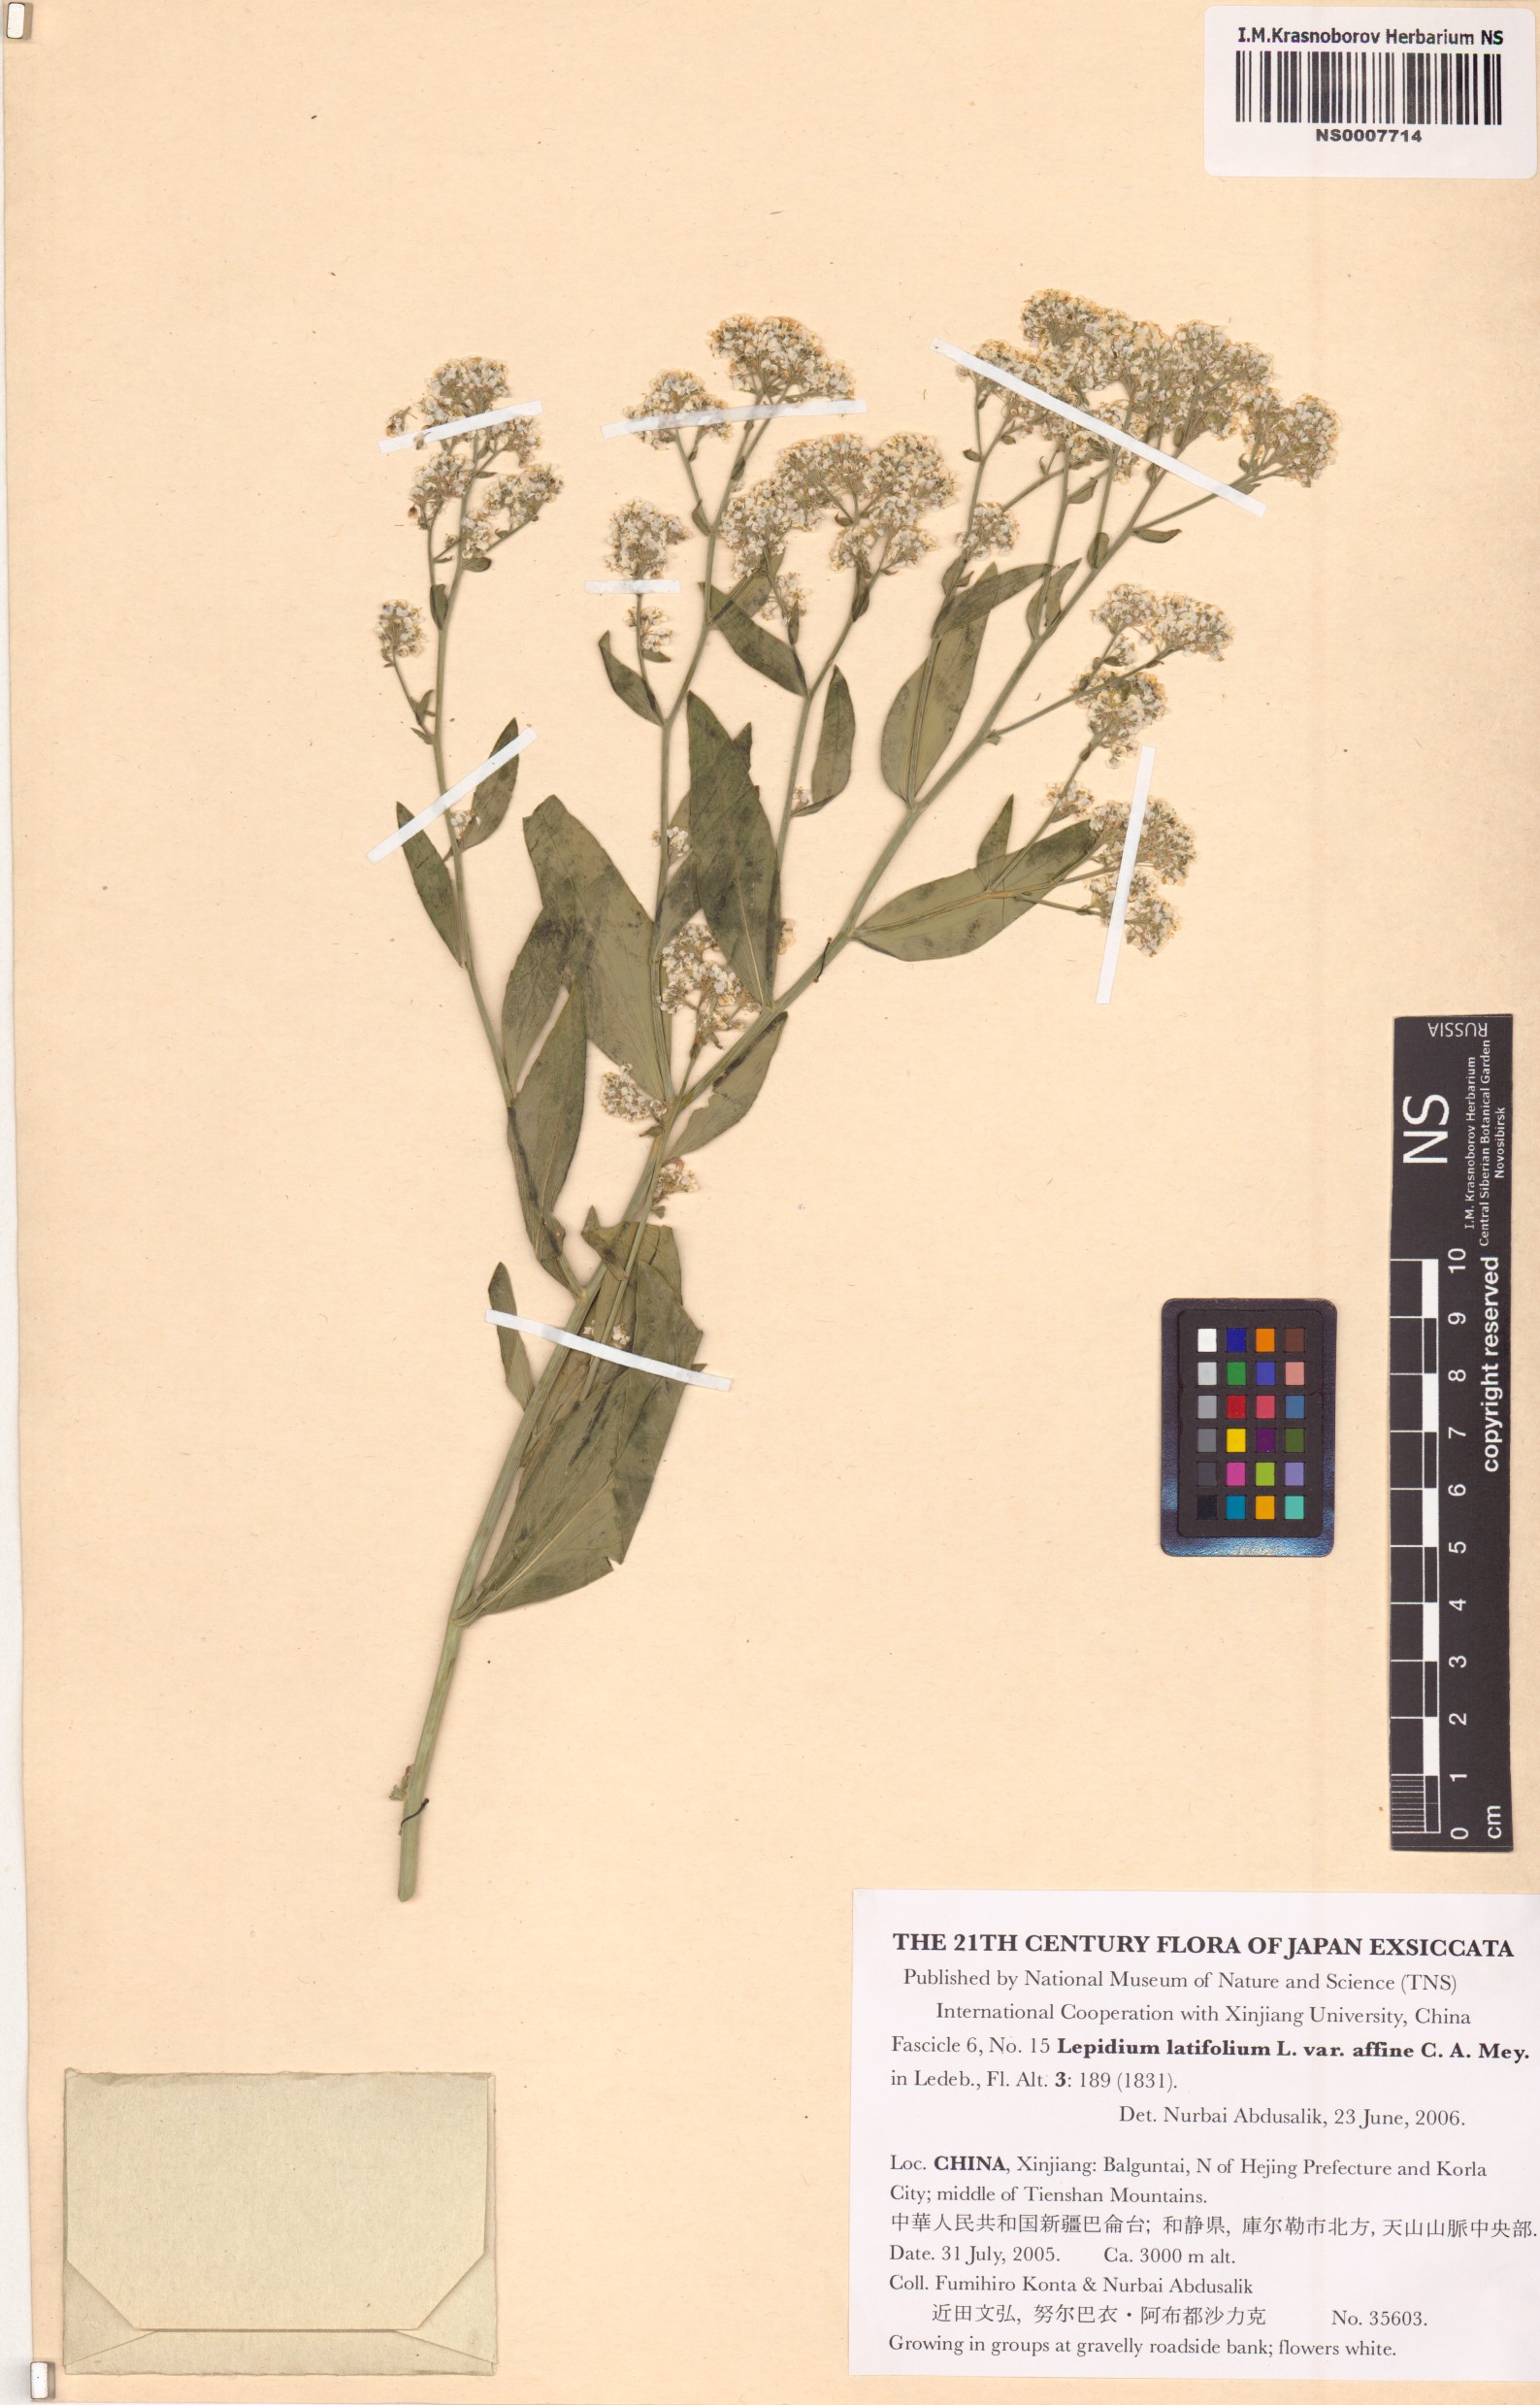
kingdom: Plantae
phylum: Tracheophyta
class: Magnoliopsida
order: Brassicales
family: Brassicaceae
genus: Lepidium
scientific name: Lepidium latifolium
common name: Dittander
